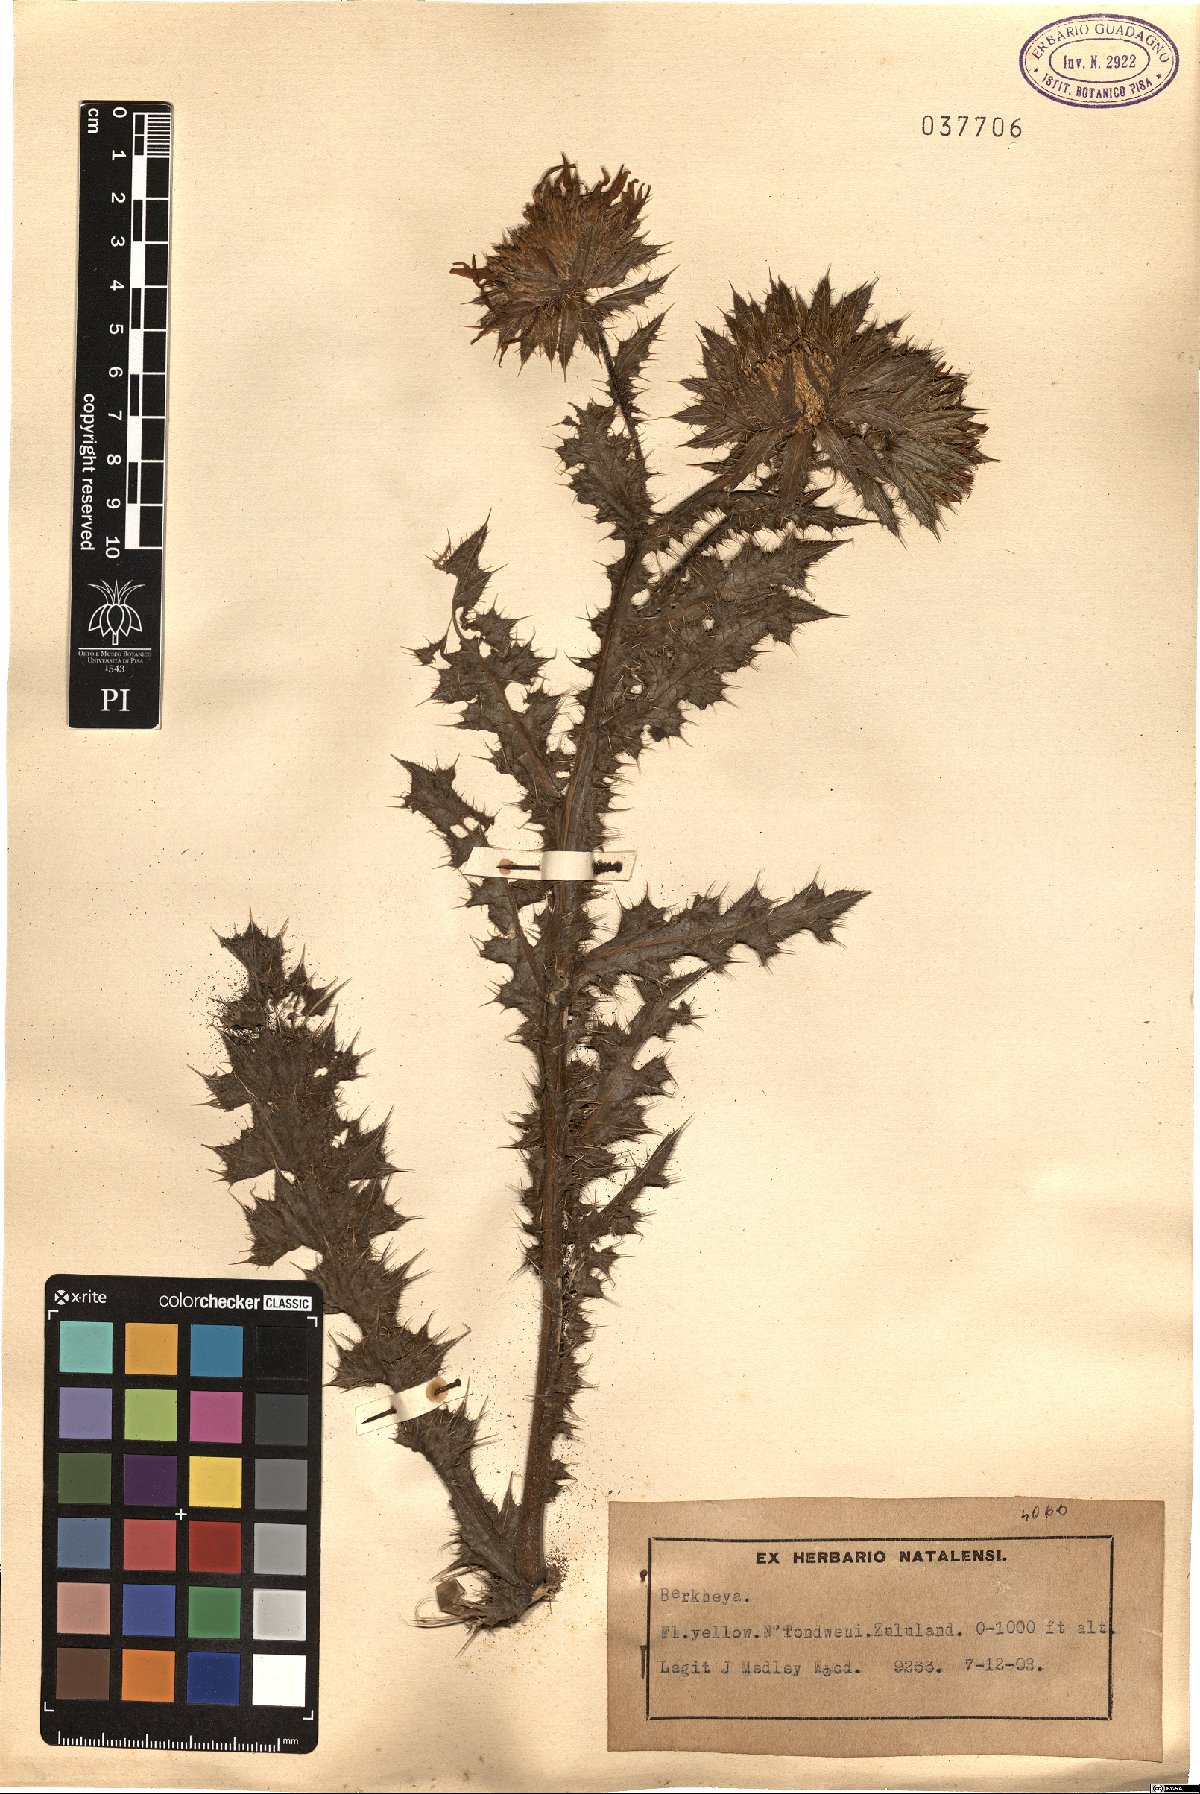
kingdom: Plantae
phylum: Tracheophyta
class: Magnoliopsida
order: Asterales
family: Asteraceae
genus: Berkheya
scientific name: Berkheya
